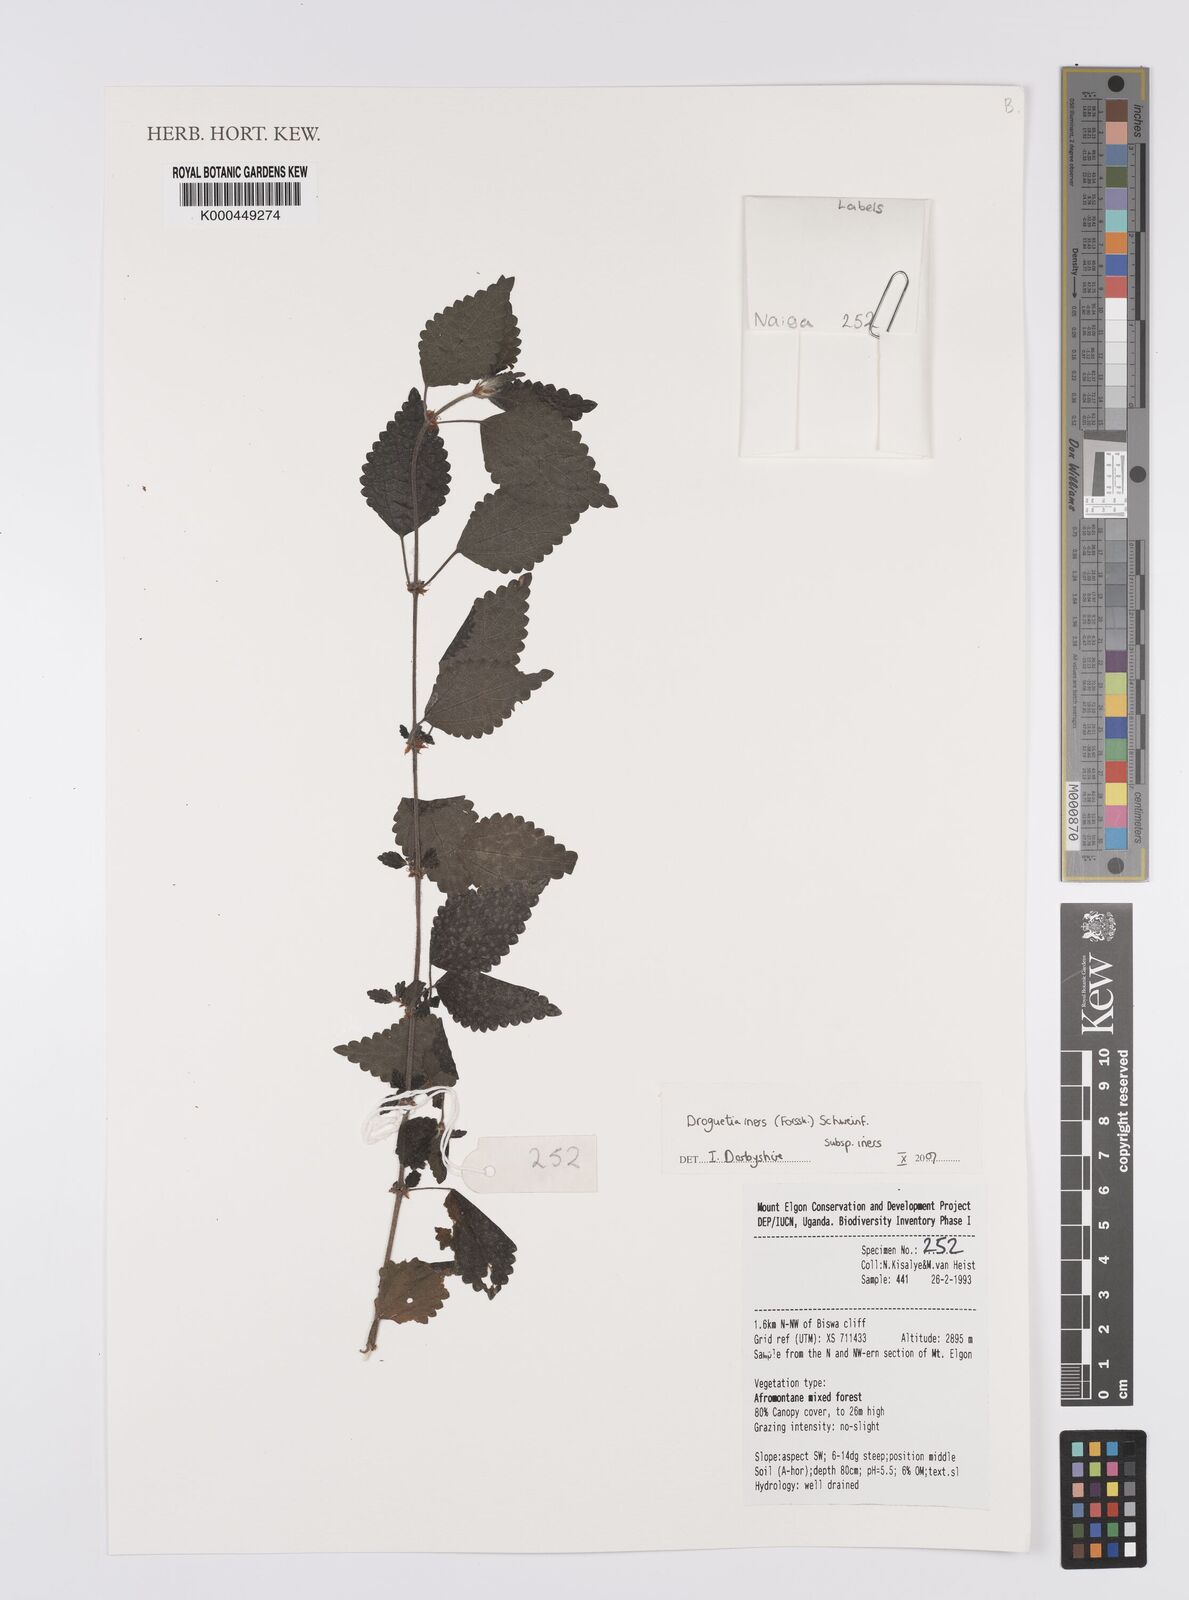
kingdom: Plantae
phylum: Tracheophyta
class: Magnoliopsida
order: Rosales
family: Urticaceae
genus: Droguetia
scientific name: Droguetia iners
